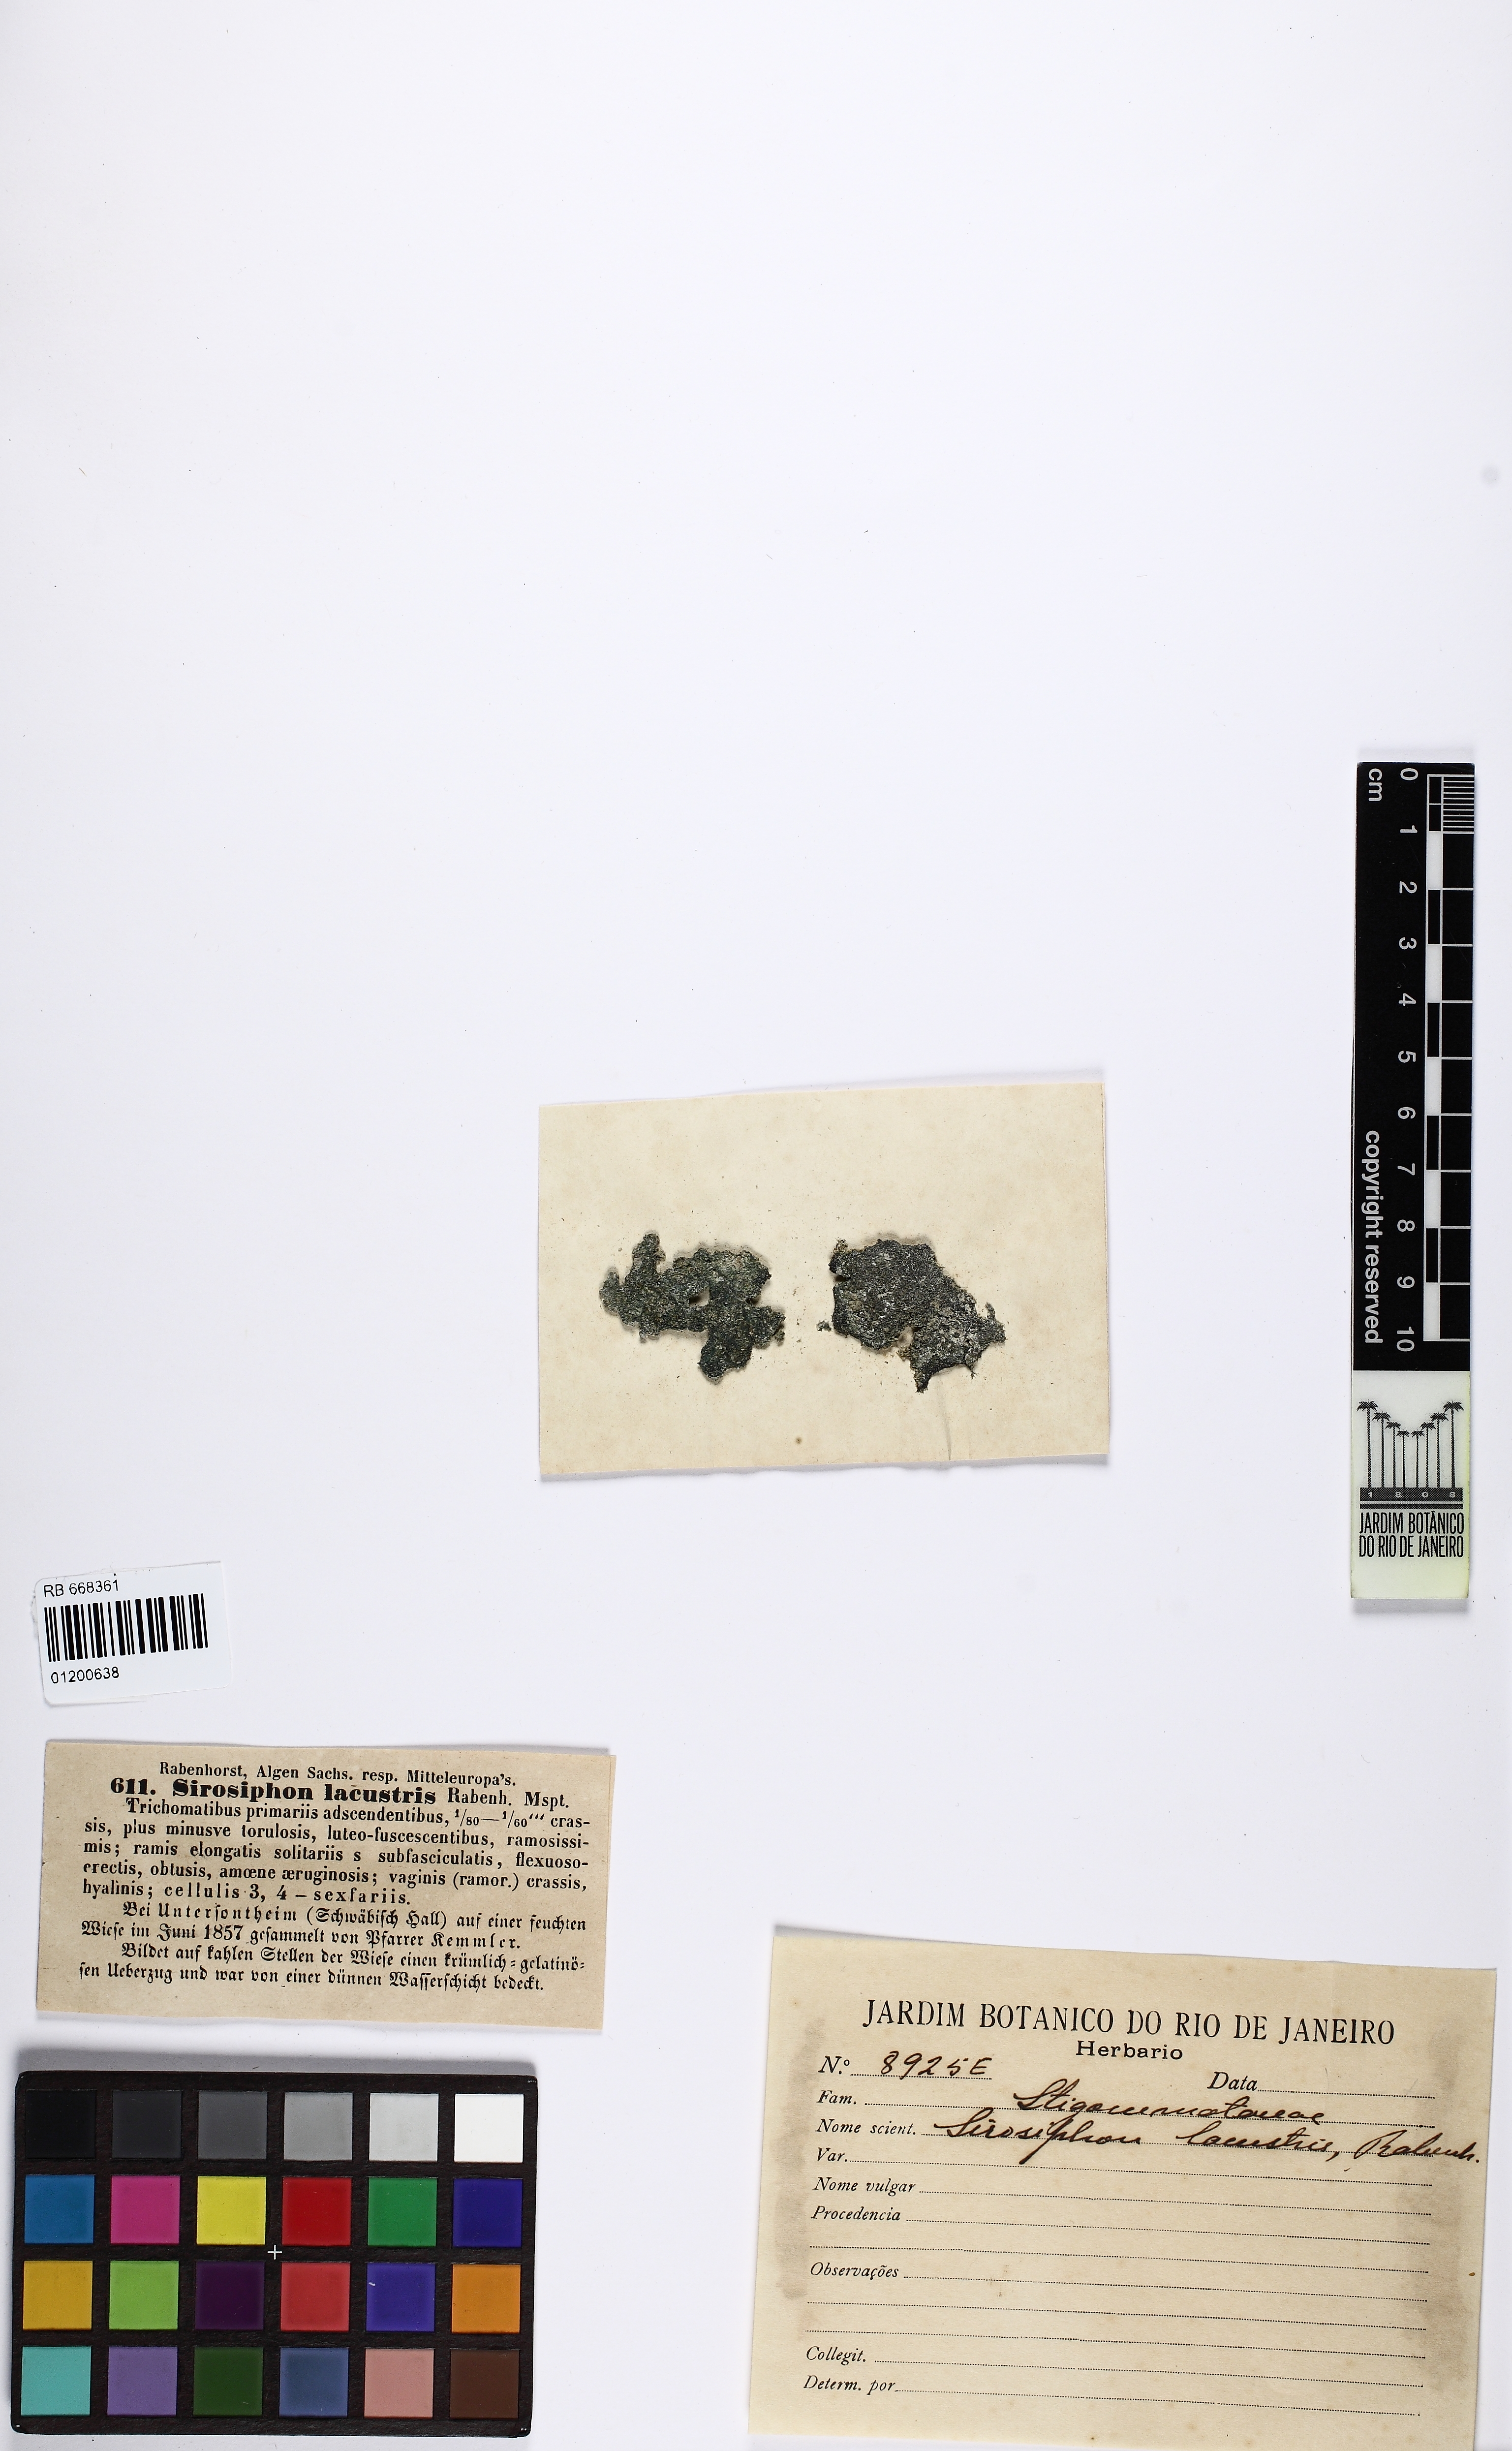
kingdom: Bacteria
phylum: Cyanobacteria
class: Cyanobacteriia
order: Cyanobacteriales
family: Stigonemataceae
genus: Sirosiphon
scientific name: Sirosiphon
